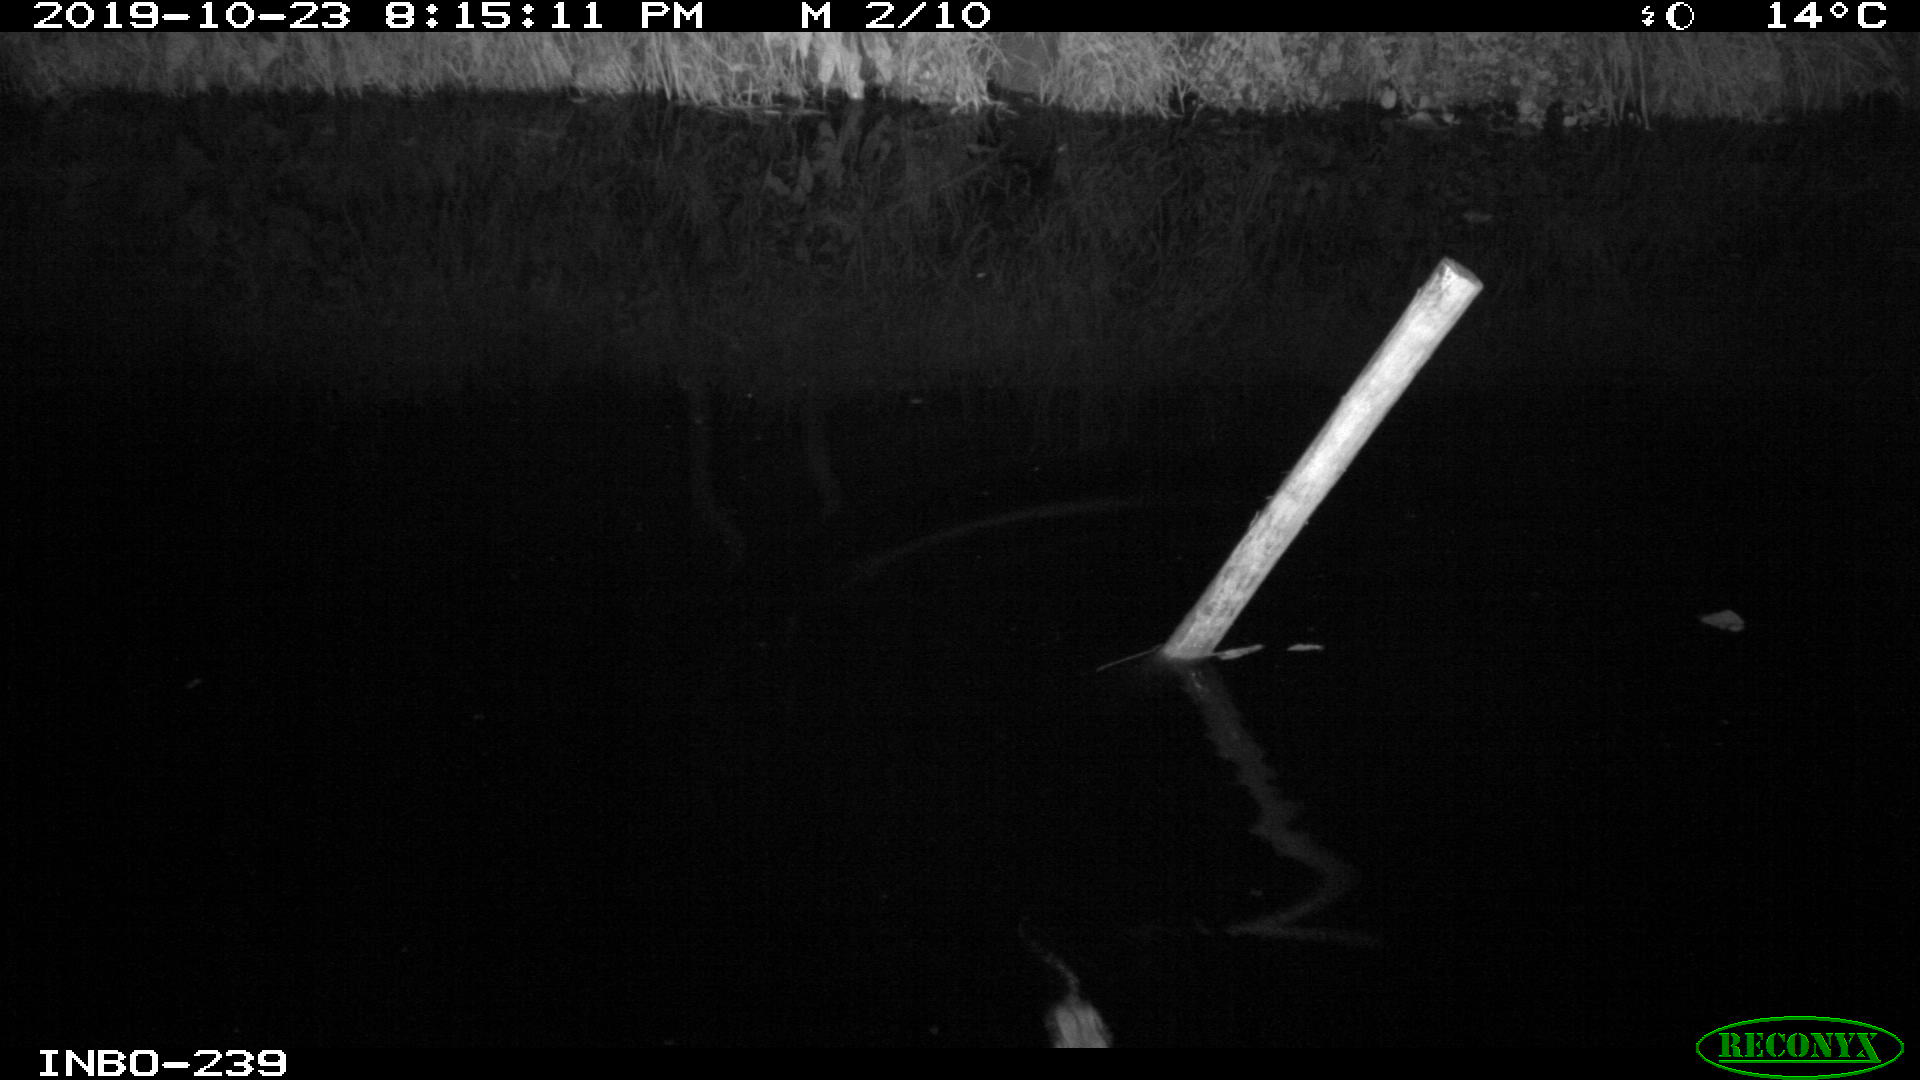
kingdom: Animalia
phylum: Chordata
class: Mammalia
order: Rodentia
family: Muridae
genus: Rattus
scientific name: Rattus norvegicus
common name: Brown rat
